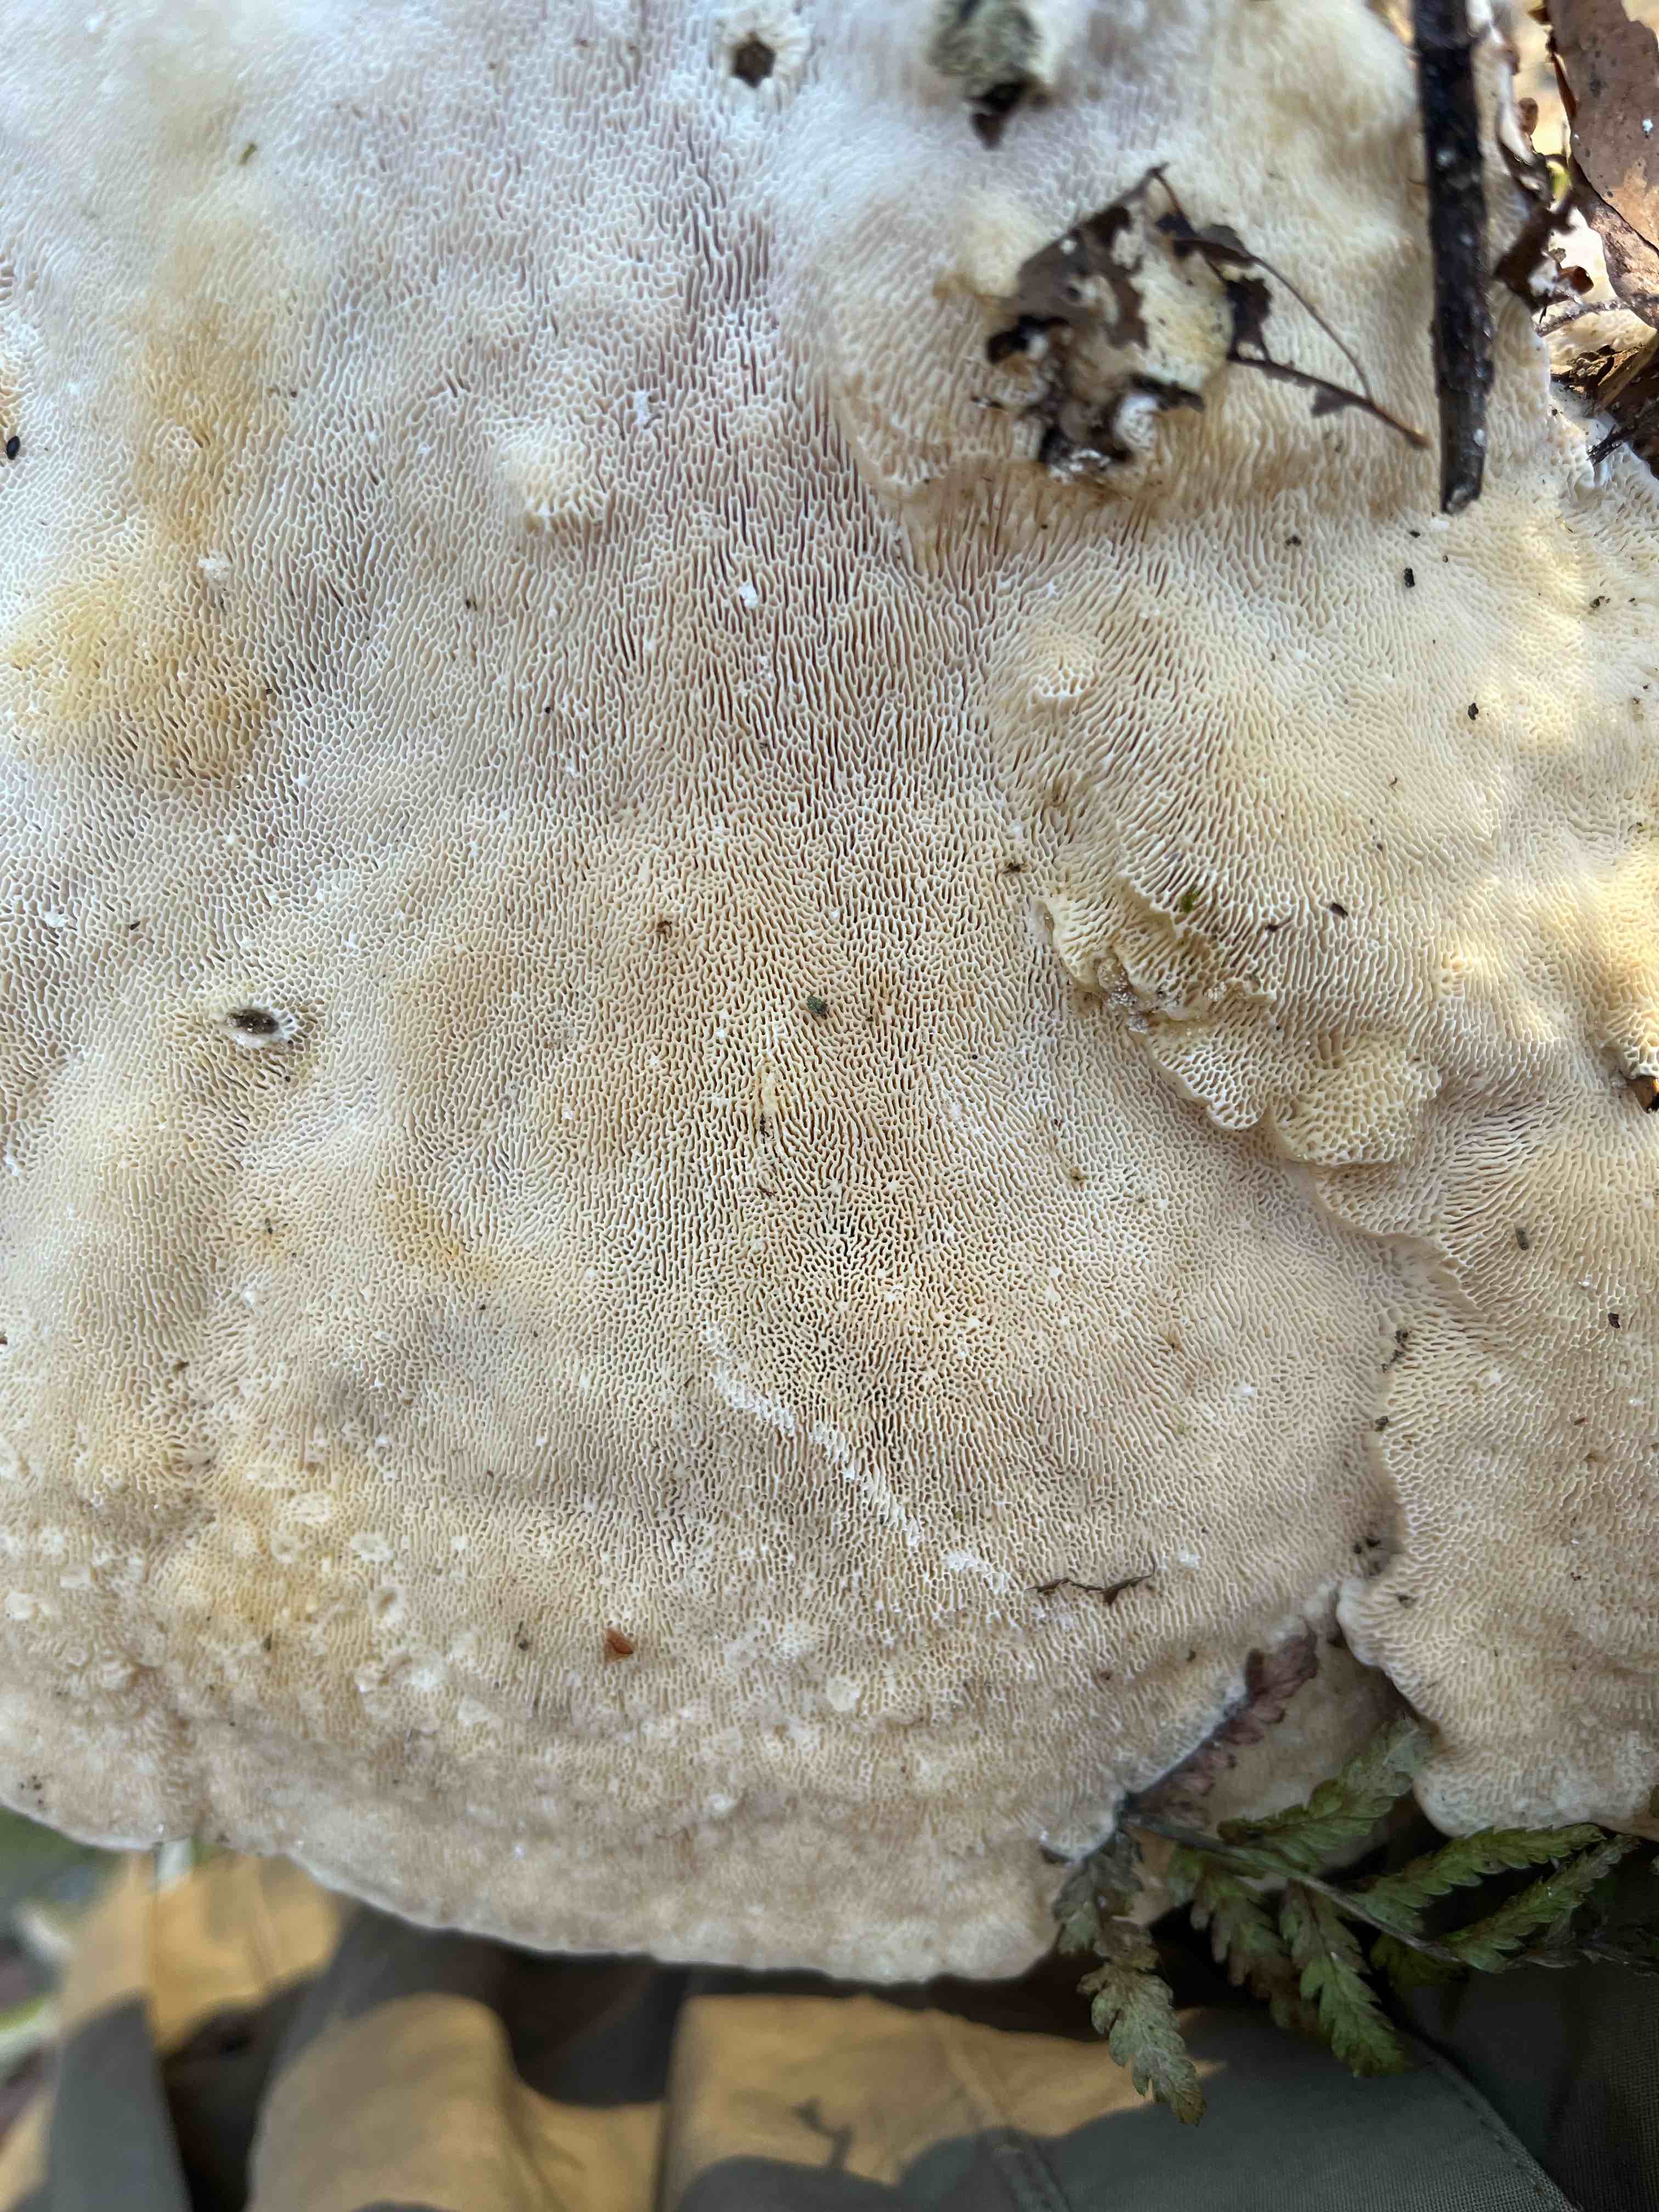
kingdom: Fungi
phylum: Basidiomycota
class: Agaricomycetes
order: Polyporales
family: Polyporaceae
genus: Trametes
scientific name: Trametes gibbosa
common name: puklet læderporesvamp
